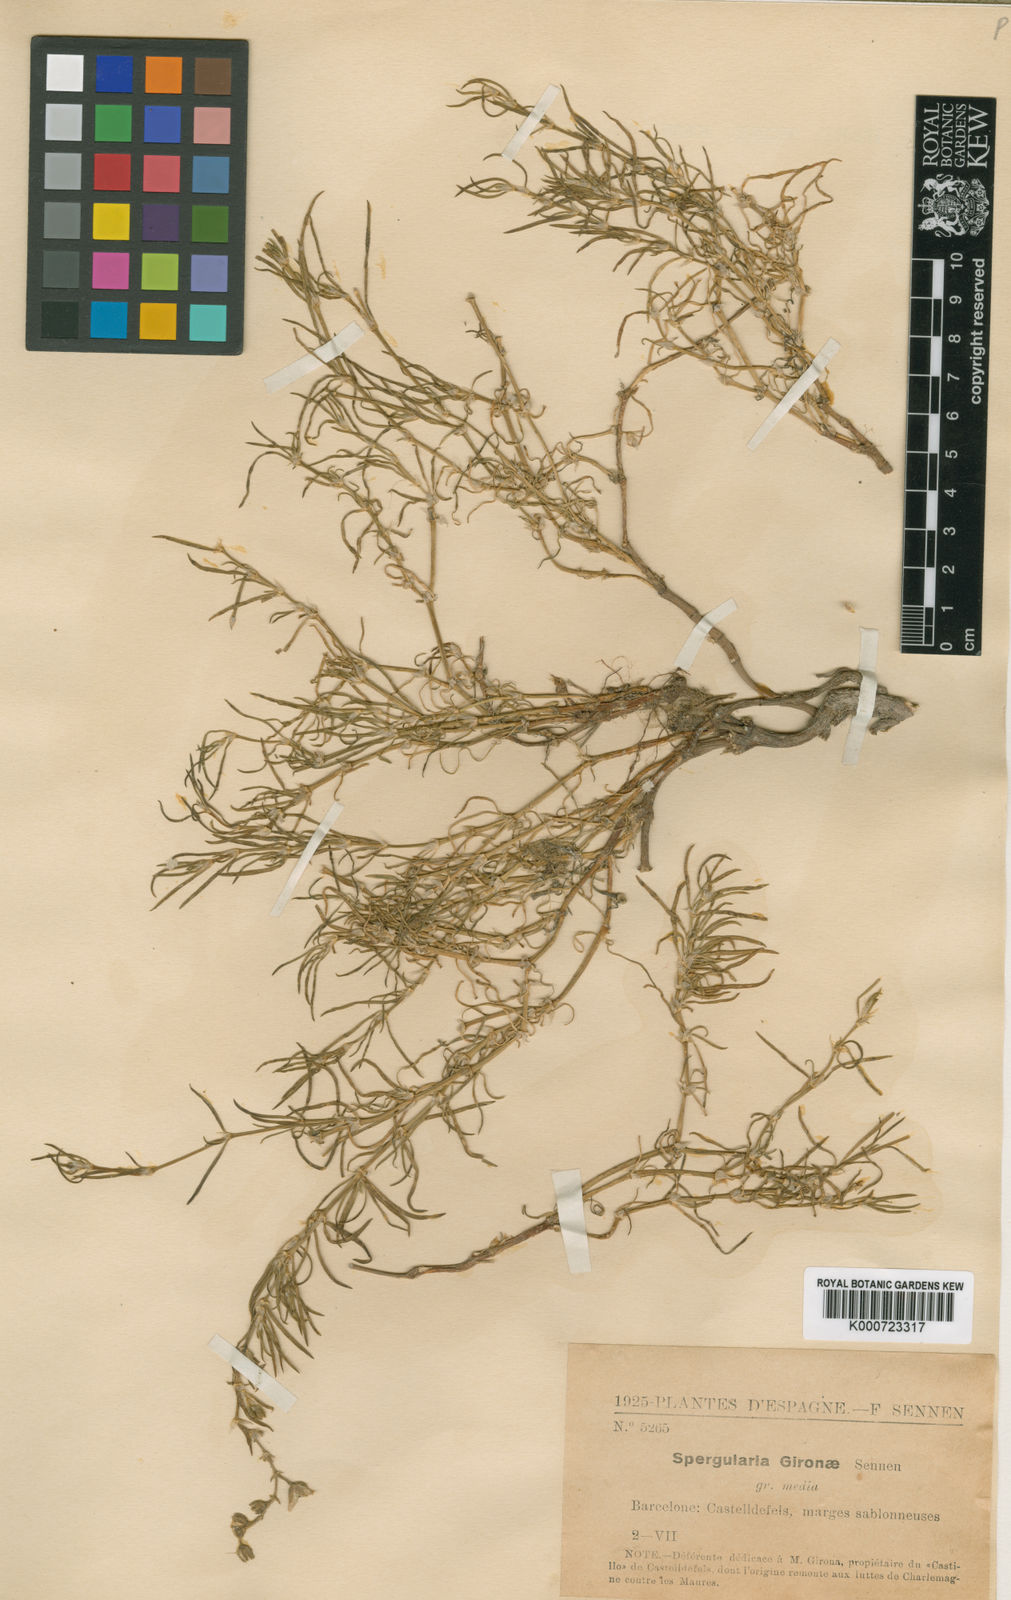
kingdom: Plantae
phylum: Tracheophyta
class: Magnoliopsida
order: Caryophyllales
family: Caryophyllaceae
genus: Spergularia
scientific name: Spergularia media
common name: Greater sea-spurrey
